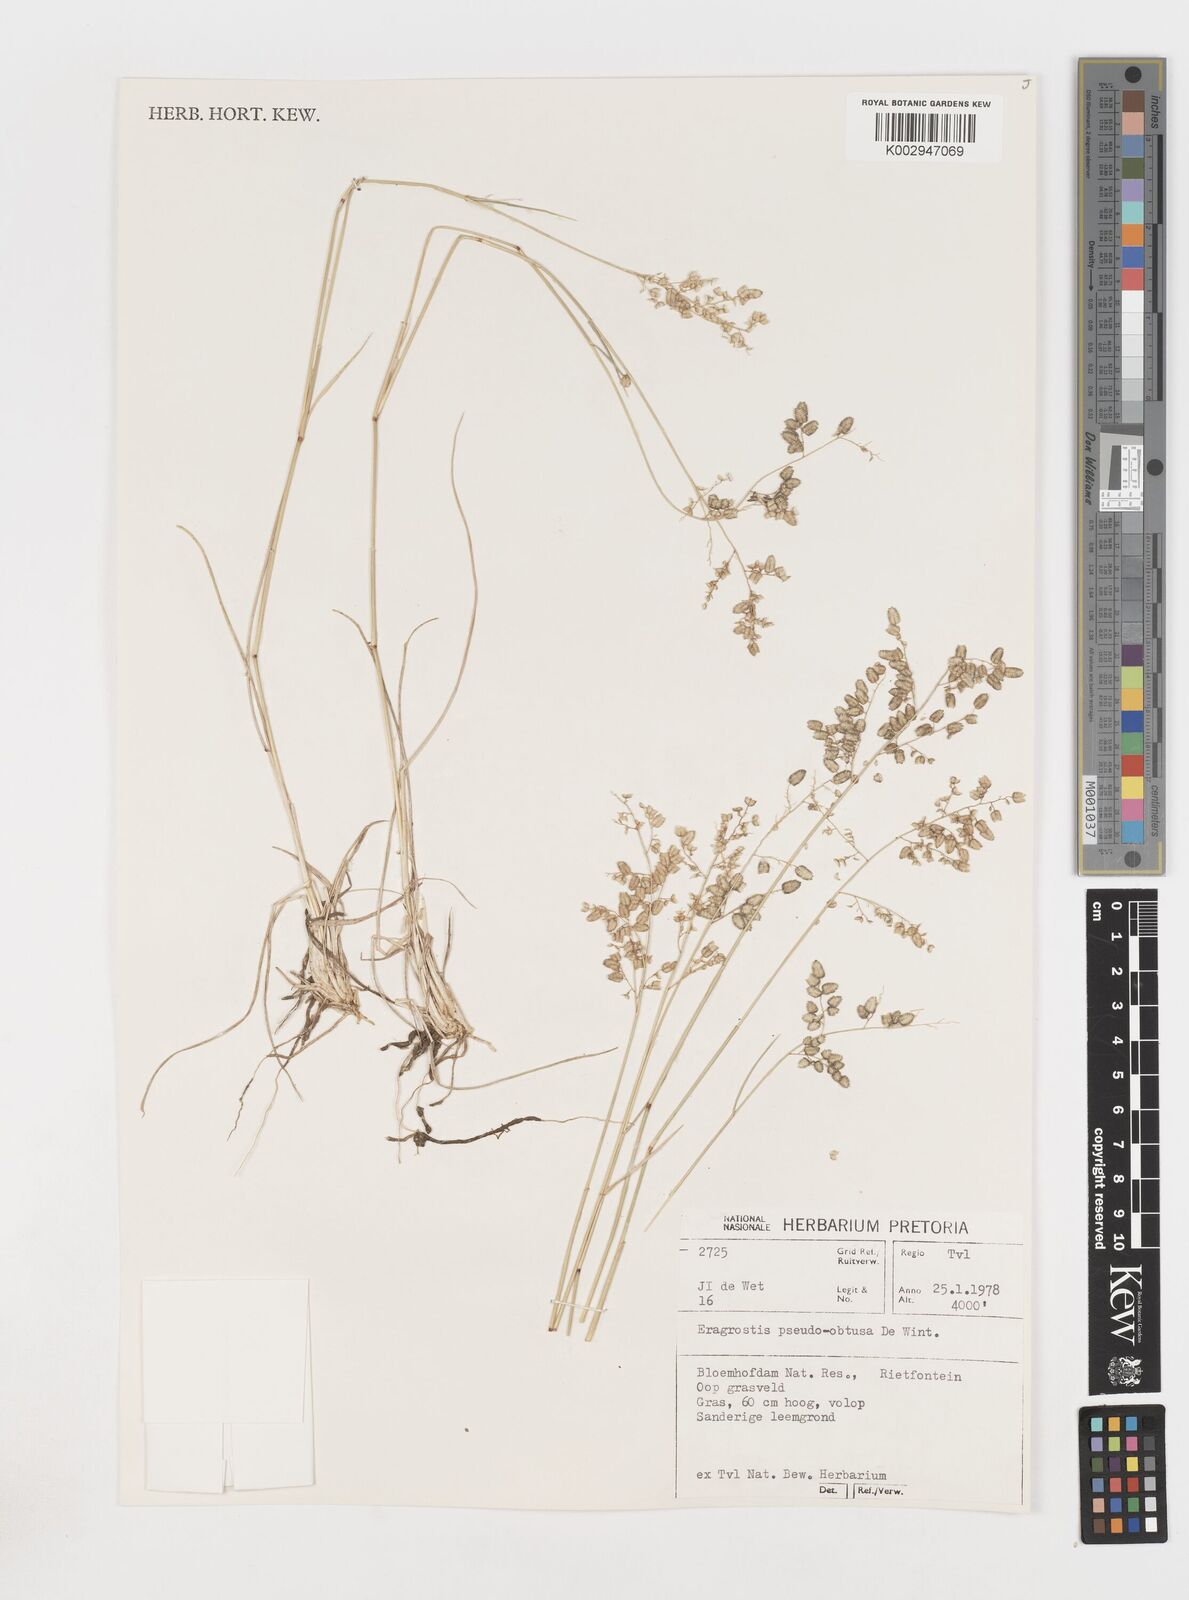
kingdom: Plantae
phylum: Tracheophyta
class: Liliopsida
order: Poales
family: Poaceae
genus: Eragrostis
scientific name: Eragrostis pseudobtusa
